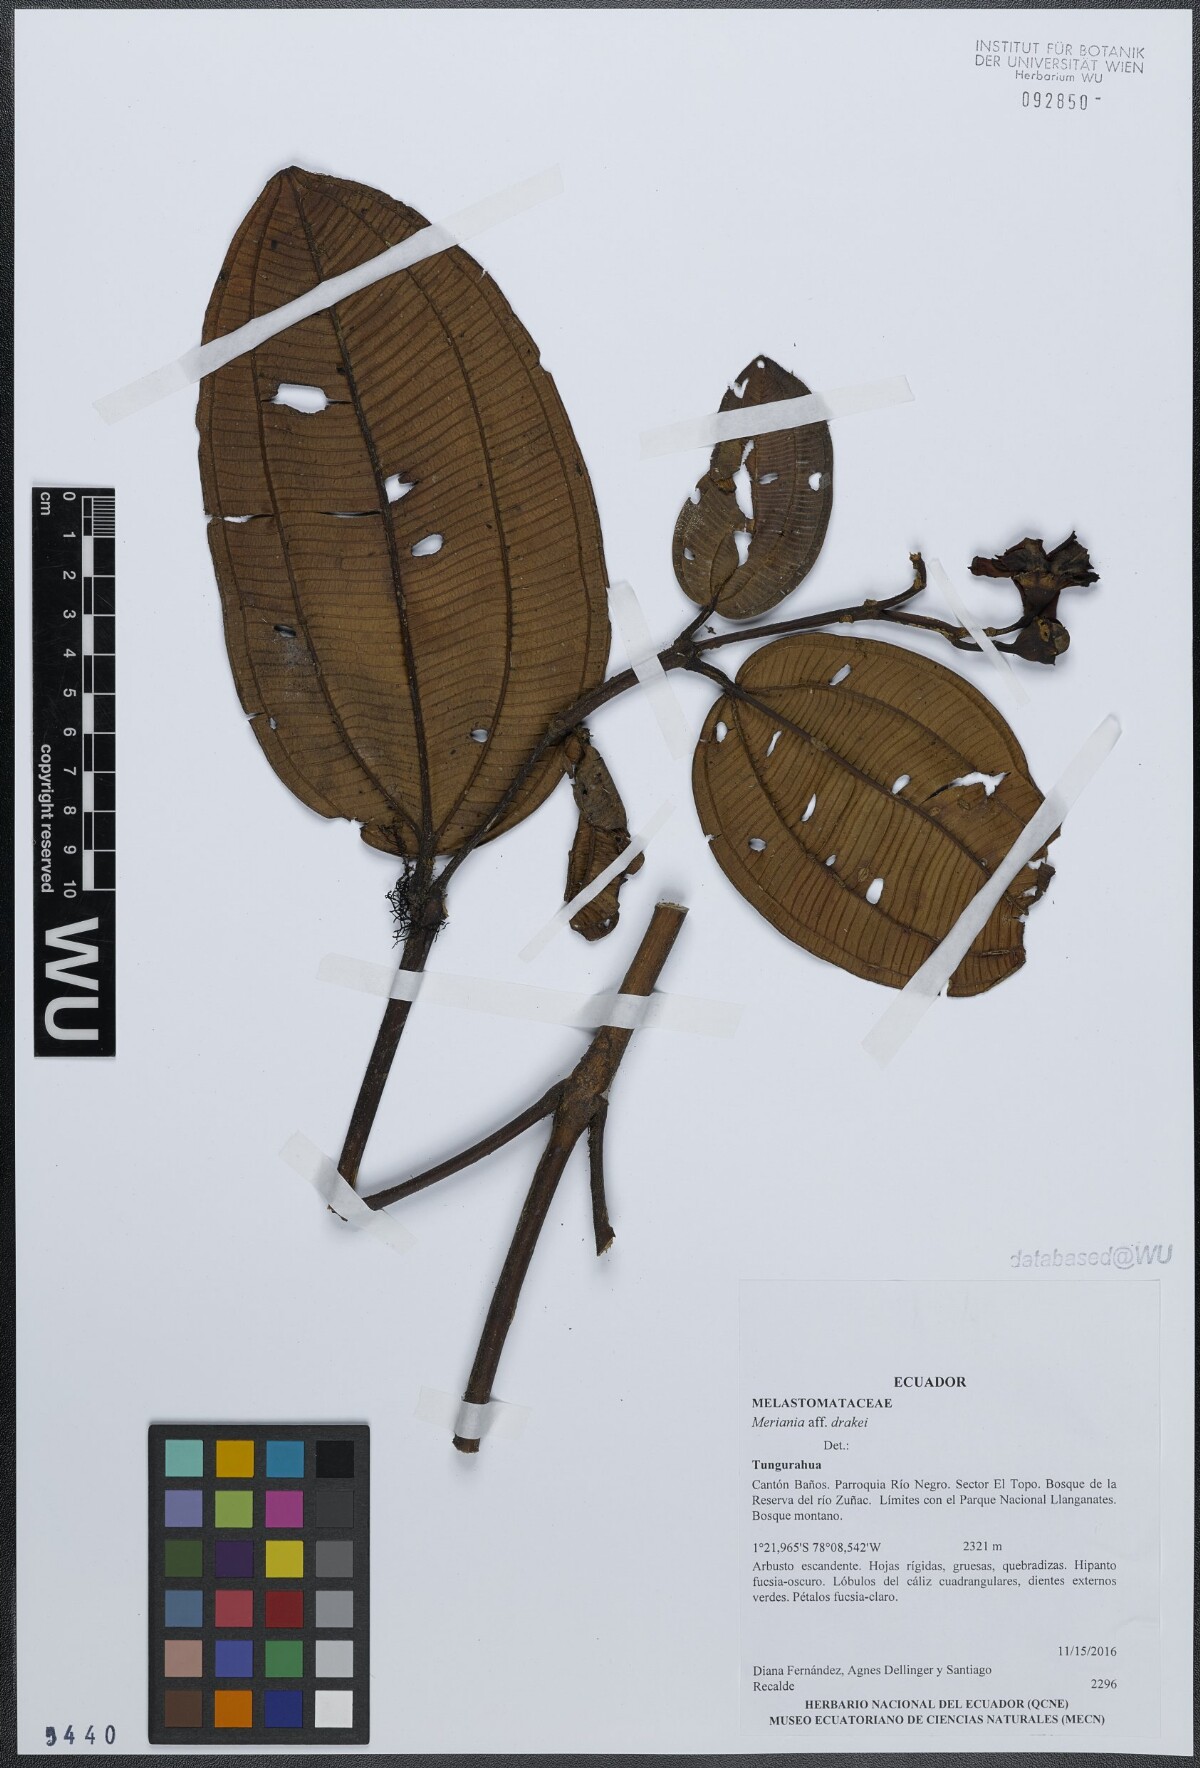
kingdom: Plantae
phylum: Tracheophyta
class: Magnoliopsida
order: Myrtales
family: Melastomataceae
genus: Meriania
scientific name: Meriania drakei
